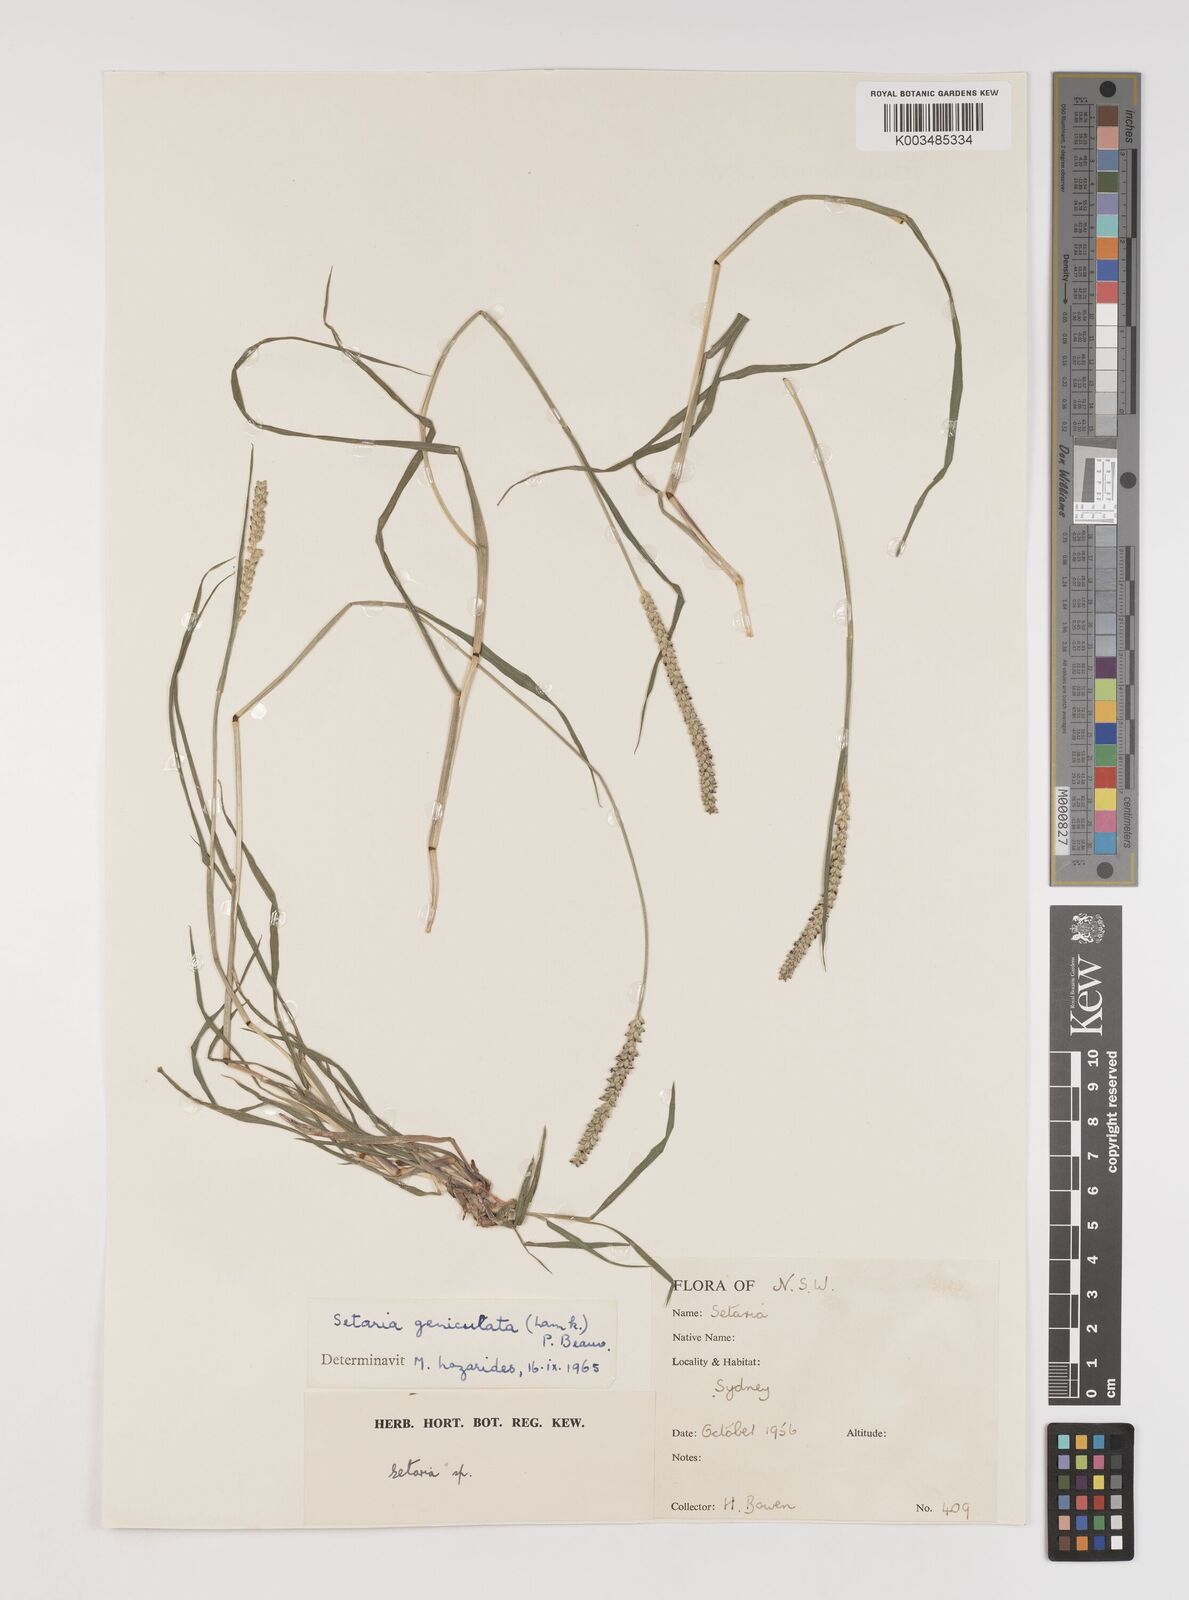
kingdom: Plantae
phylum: Tracheophyta
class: Liliopsida
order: Poales
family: Poaceae
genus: Setaria
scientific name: Setaria parviflora
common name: Knotroot bristle-grass
